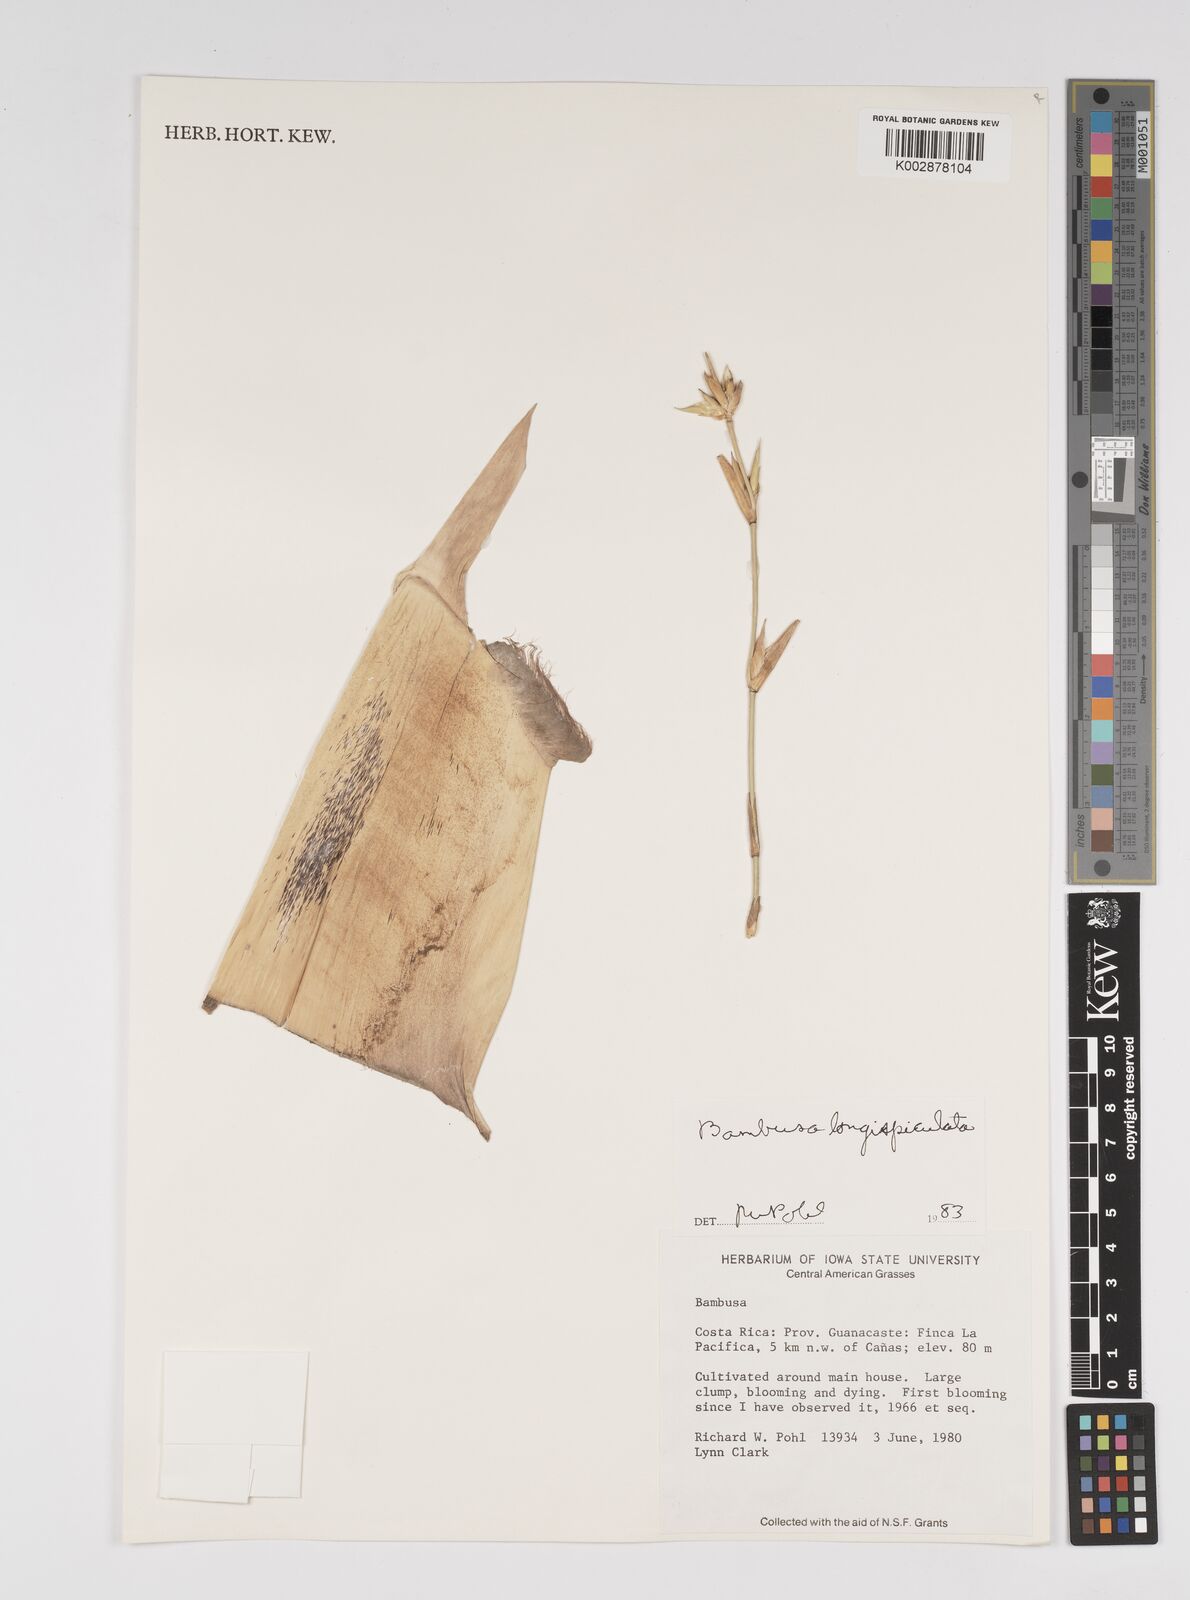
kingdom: Plantae
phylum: Tracheophyta
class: Liliopsida
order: Poales
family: Poaceae
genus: Bambusa
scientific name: Bambusa longispiculata
